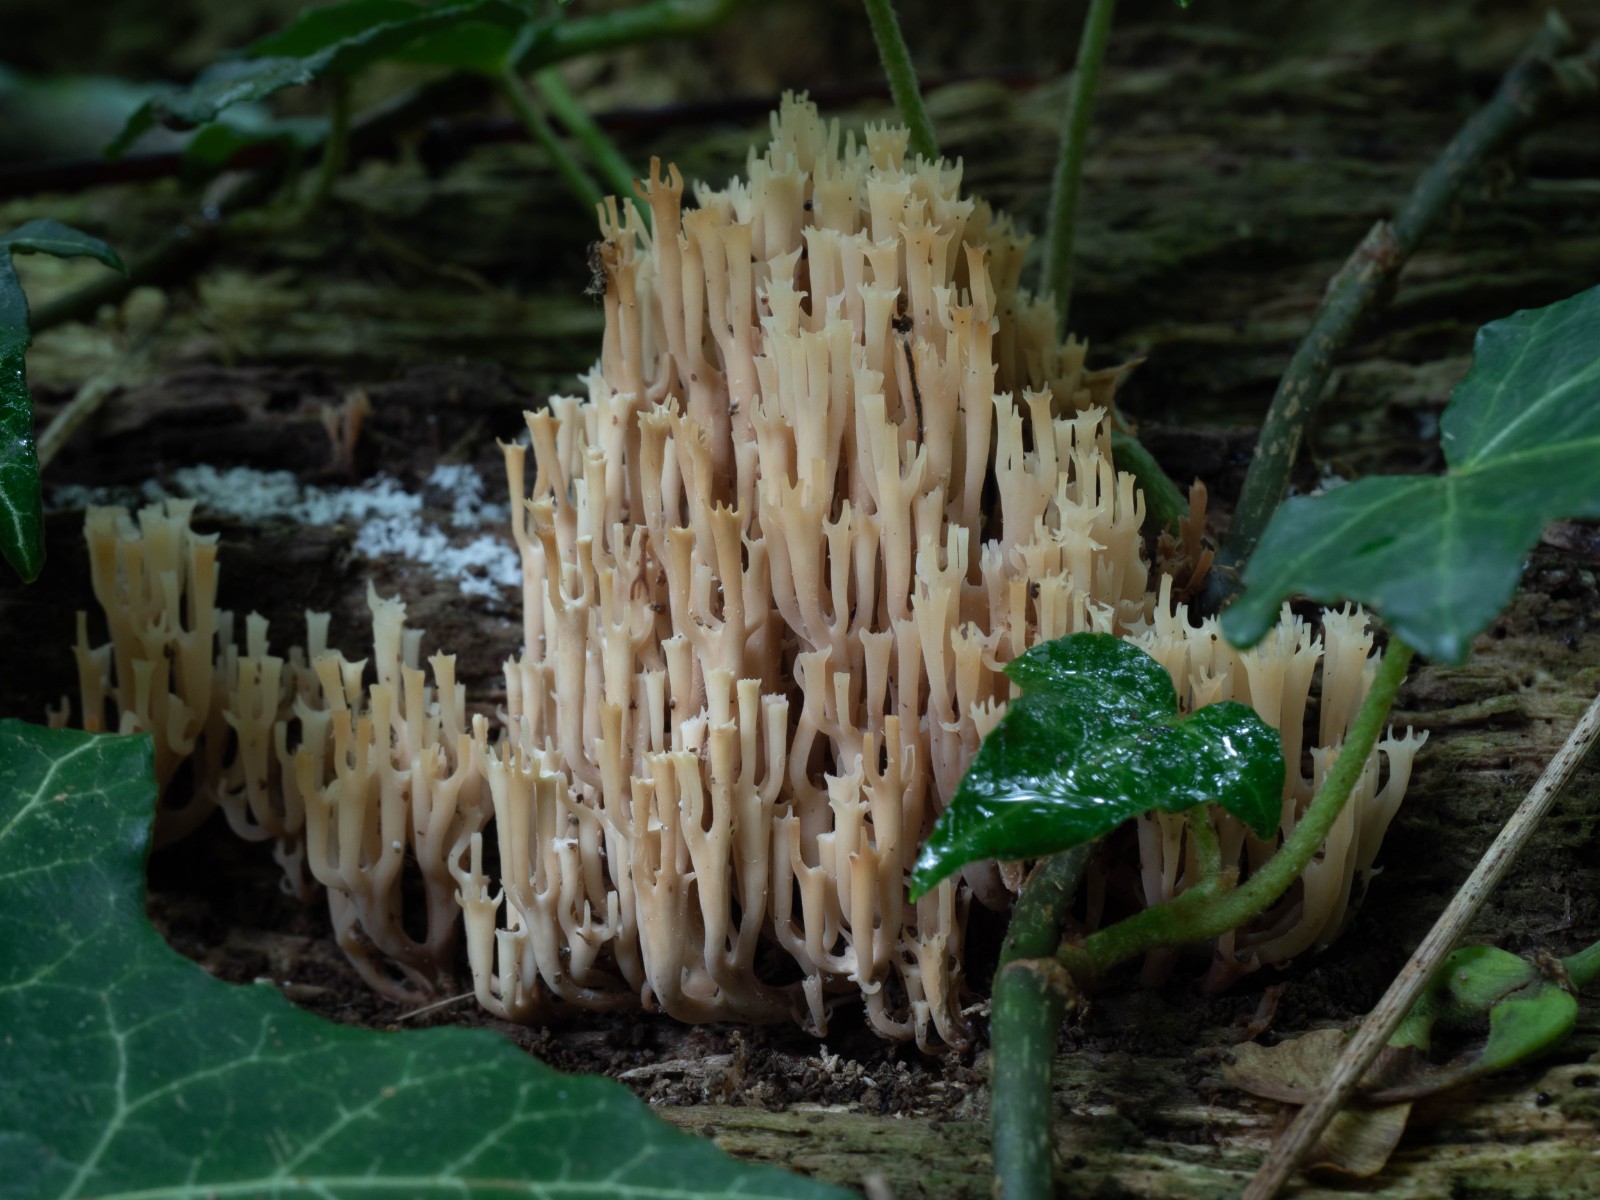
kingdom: Fungi
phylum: Basidiomycota
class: Agaricomycetes
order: Russulales
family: Auriscalpiaceae
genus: Artomyces
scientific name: Artomyces pyxidatus
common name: kandelabersvamp
